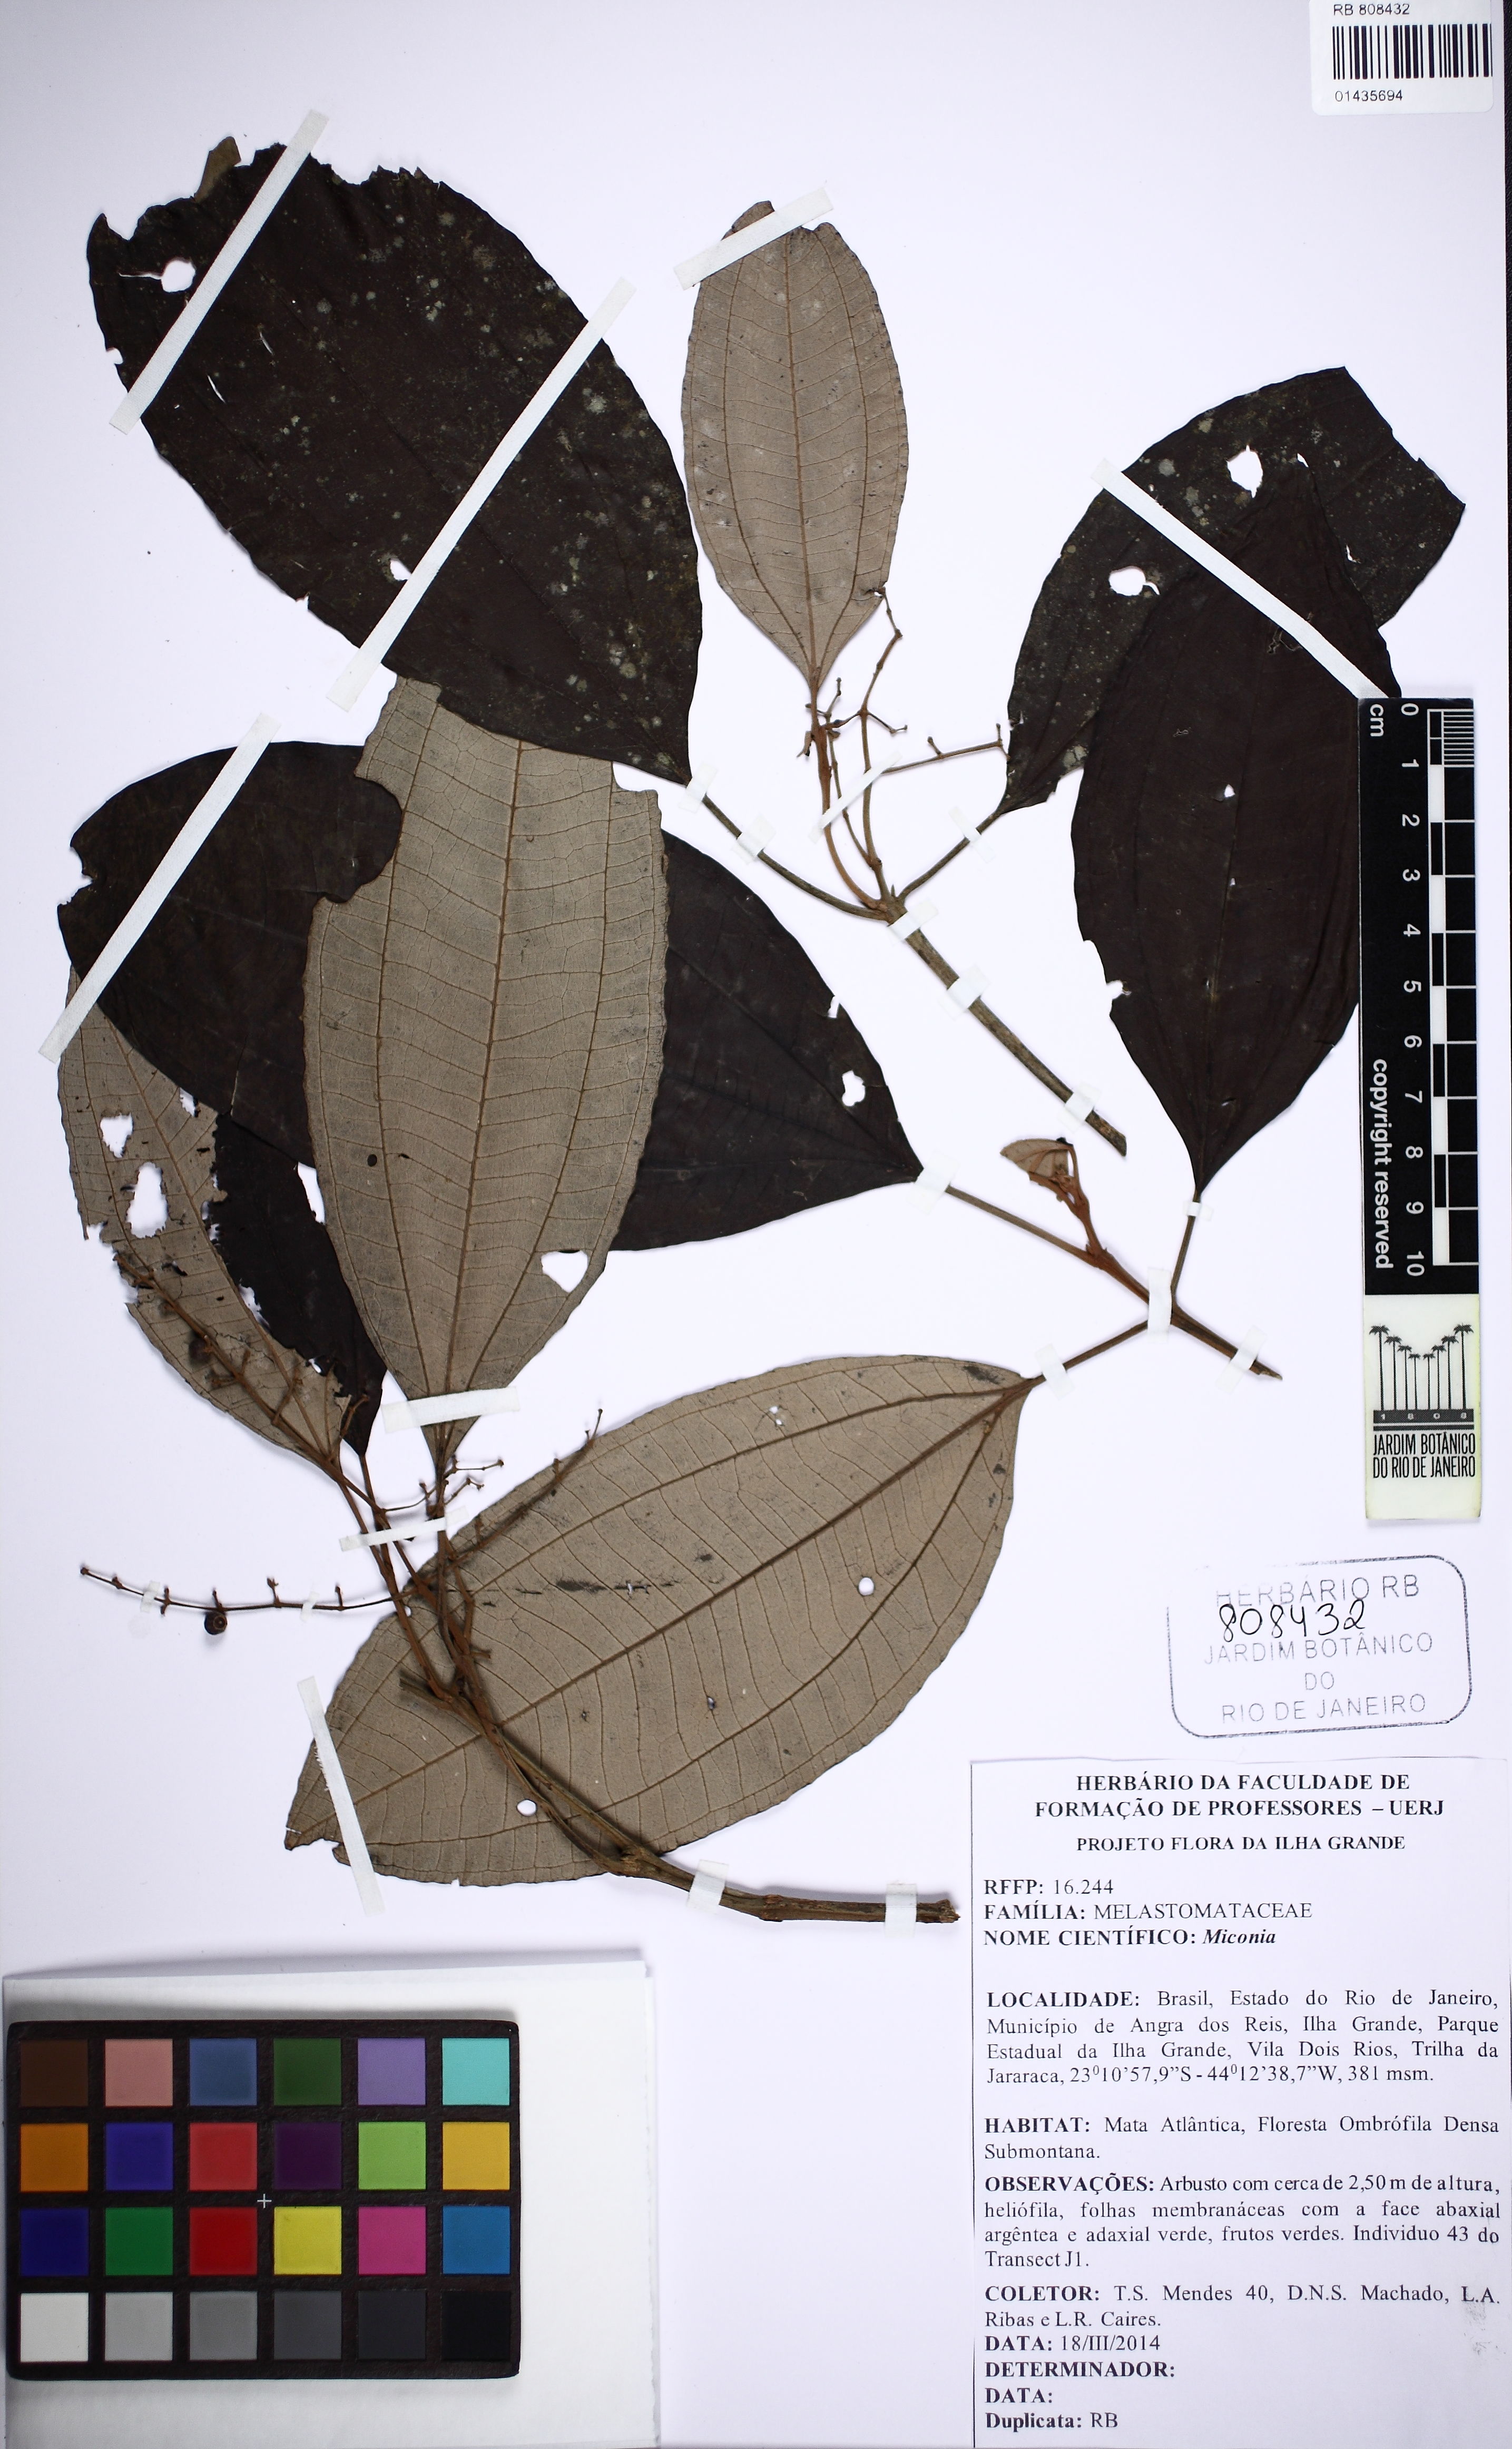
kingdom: Plantae
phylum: Tracheophyta
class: Magnoliopsida
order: Myrtales
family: Melastomataceae
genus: Miconia
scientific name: Miconia
